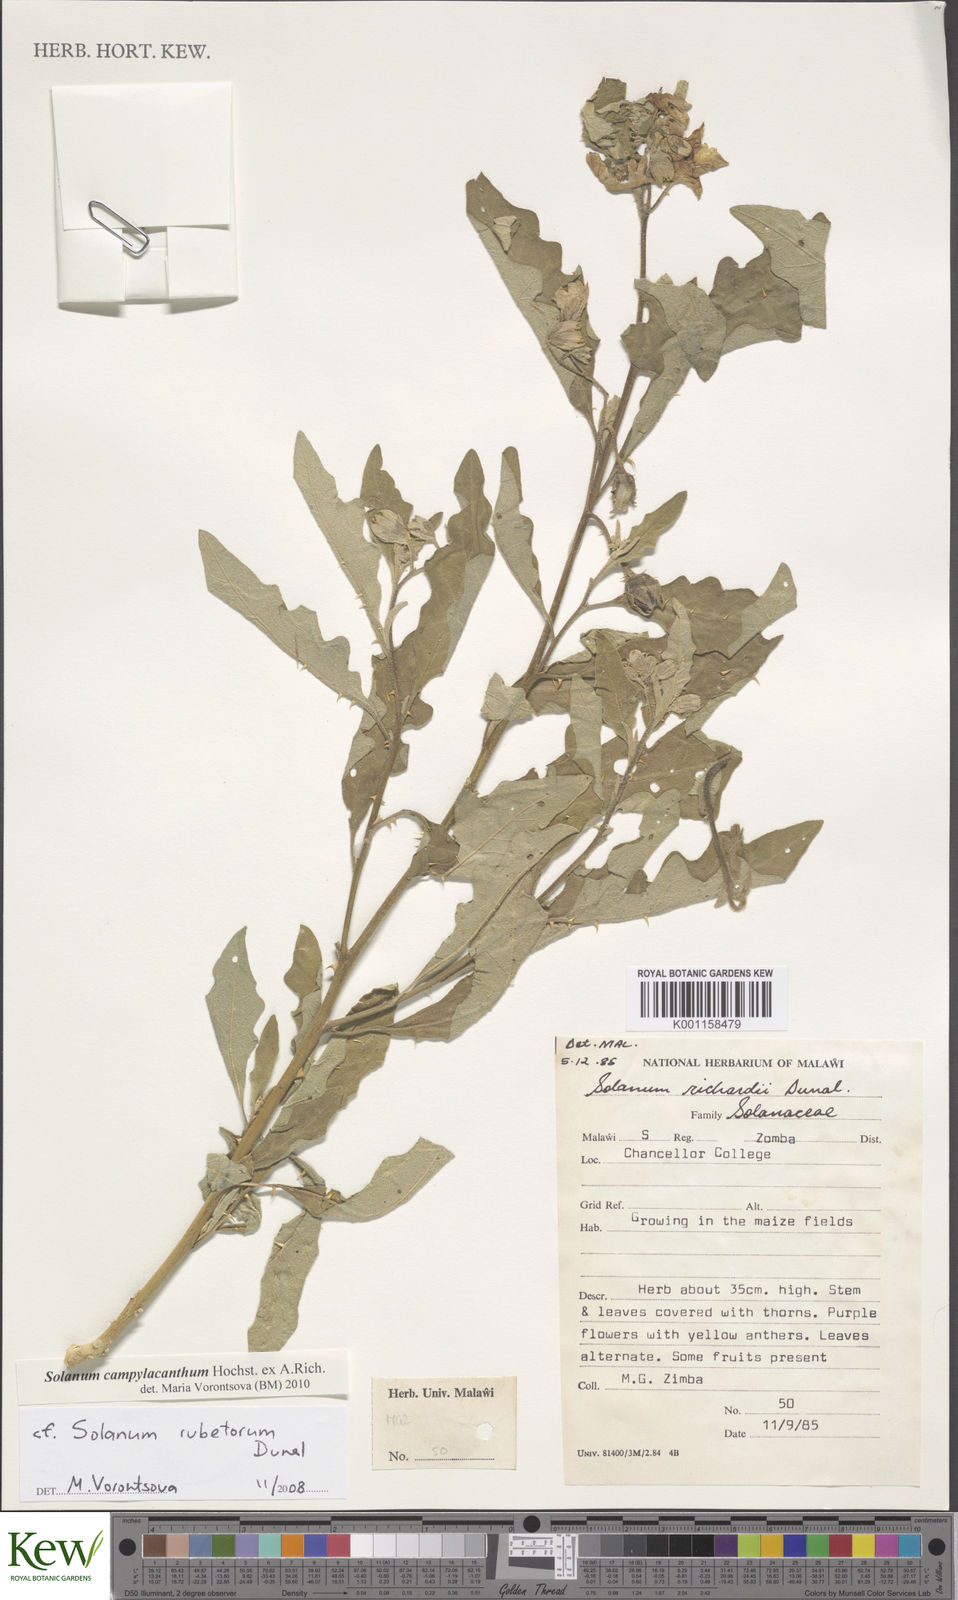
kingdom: Plantae
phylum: Tracheophyta
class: Magnoliopsida
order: Solanales
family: Solanaceae
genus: Solanum
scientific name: Solanum campylacanthum
